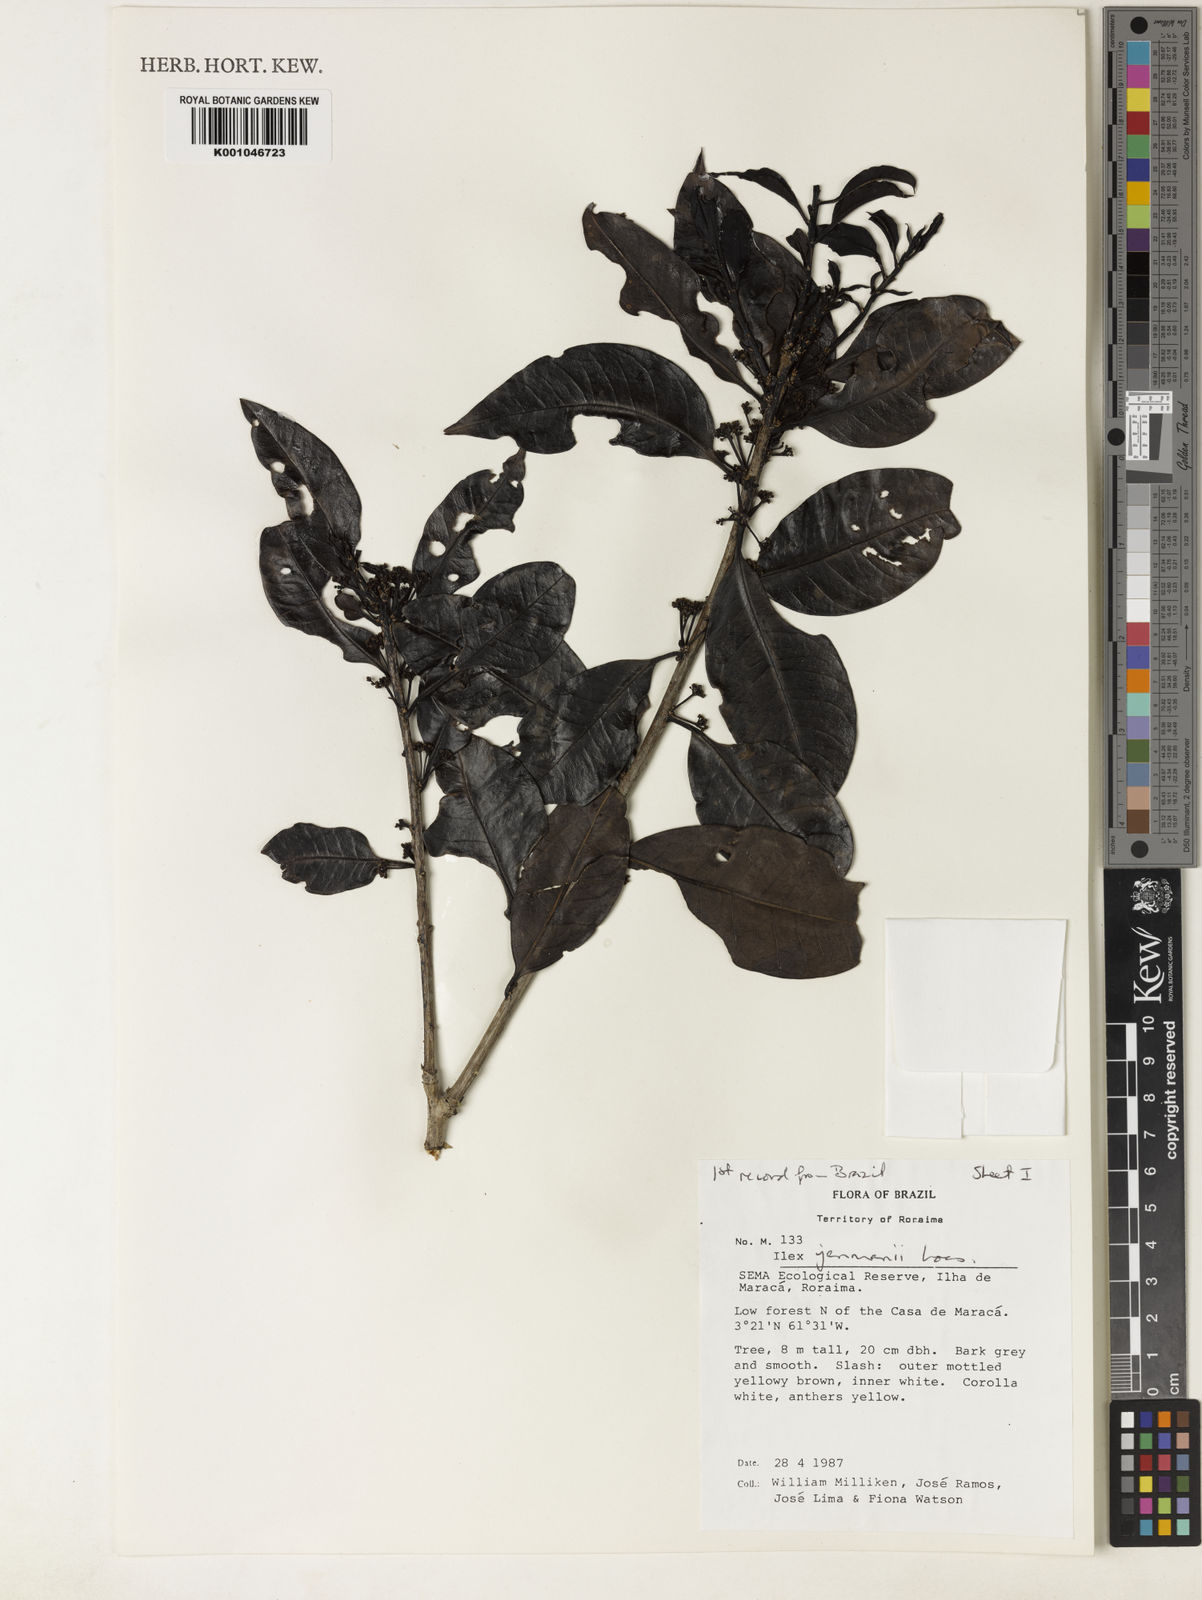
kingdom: Plantae
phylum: Tracheophyta
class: Magnoliopsida
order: Aquifoliales
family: Aquifoliaceae
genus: Ilex
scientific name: Ilex jenmanii
